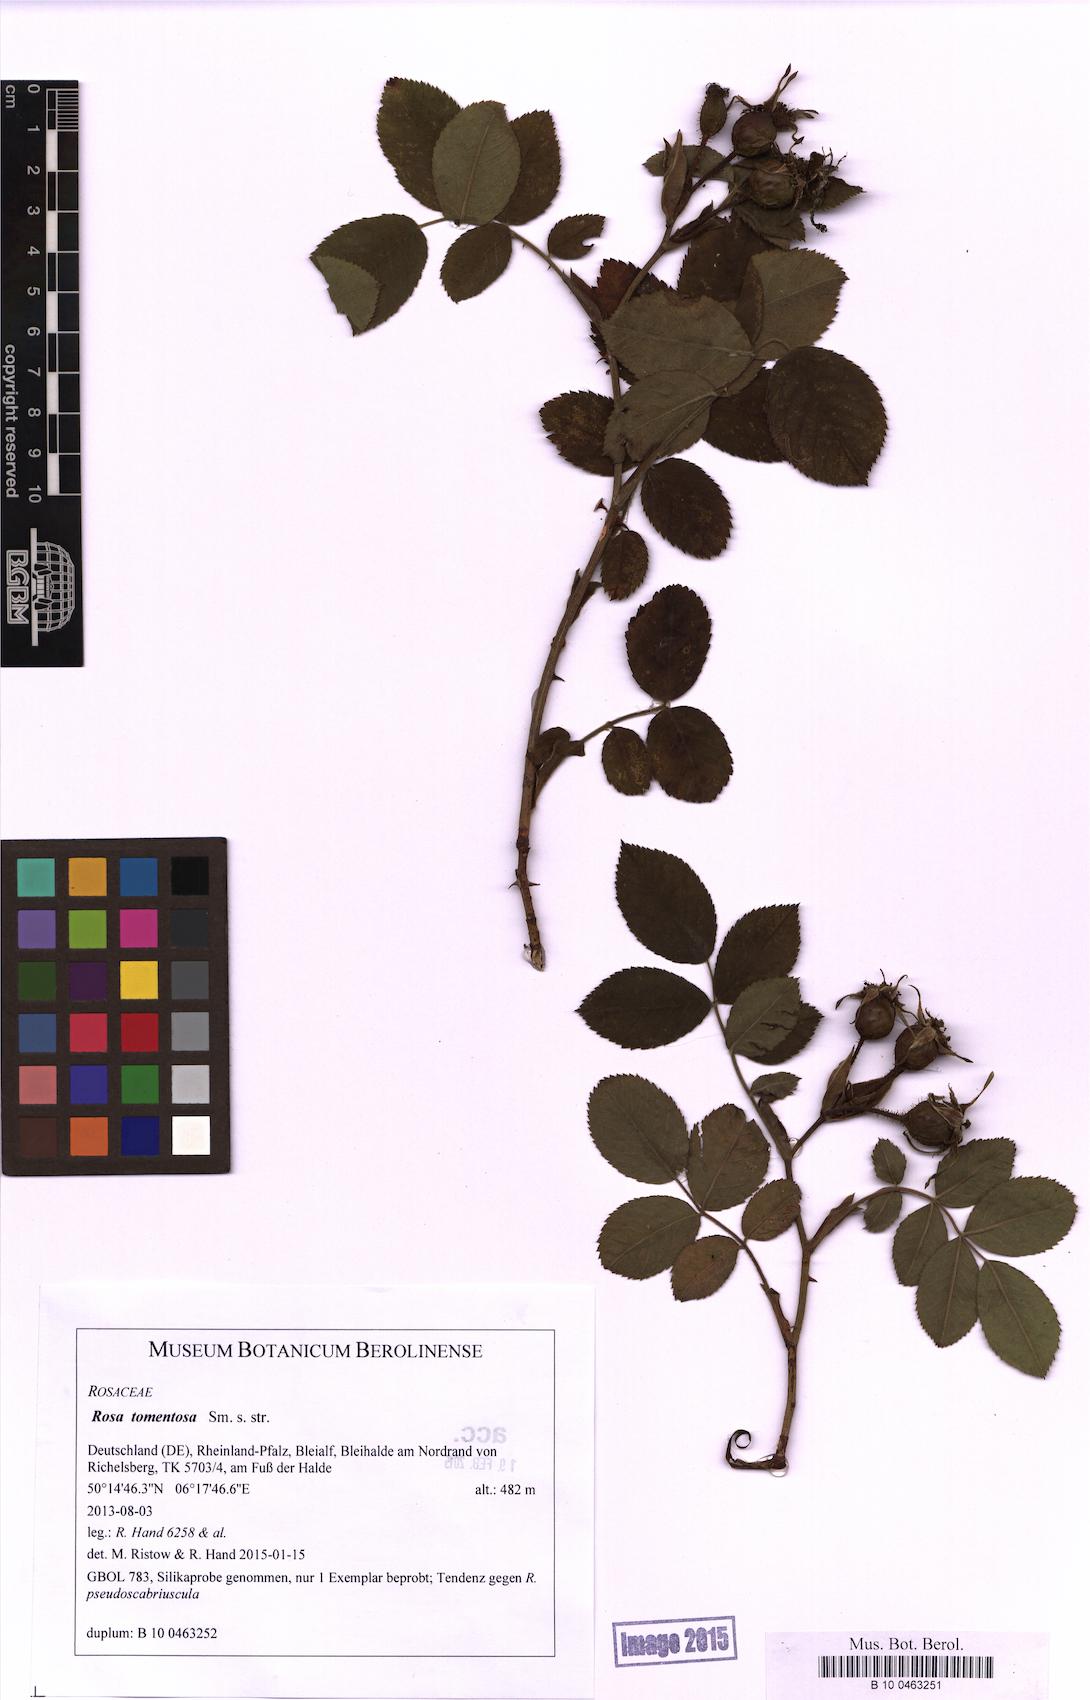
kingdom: Plantae
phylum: Tracheophyta
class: Magnoliopsida
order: Rosales
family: Rosaceae
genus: Rosa
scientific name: Rosa tomentosa
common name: Downy rose
